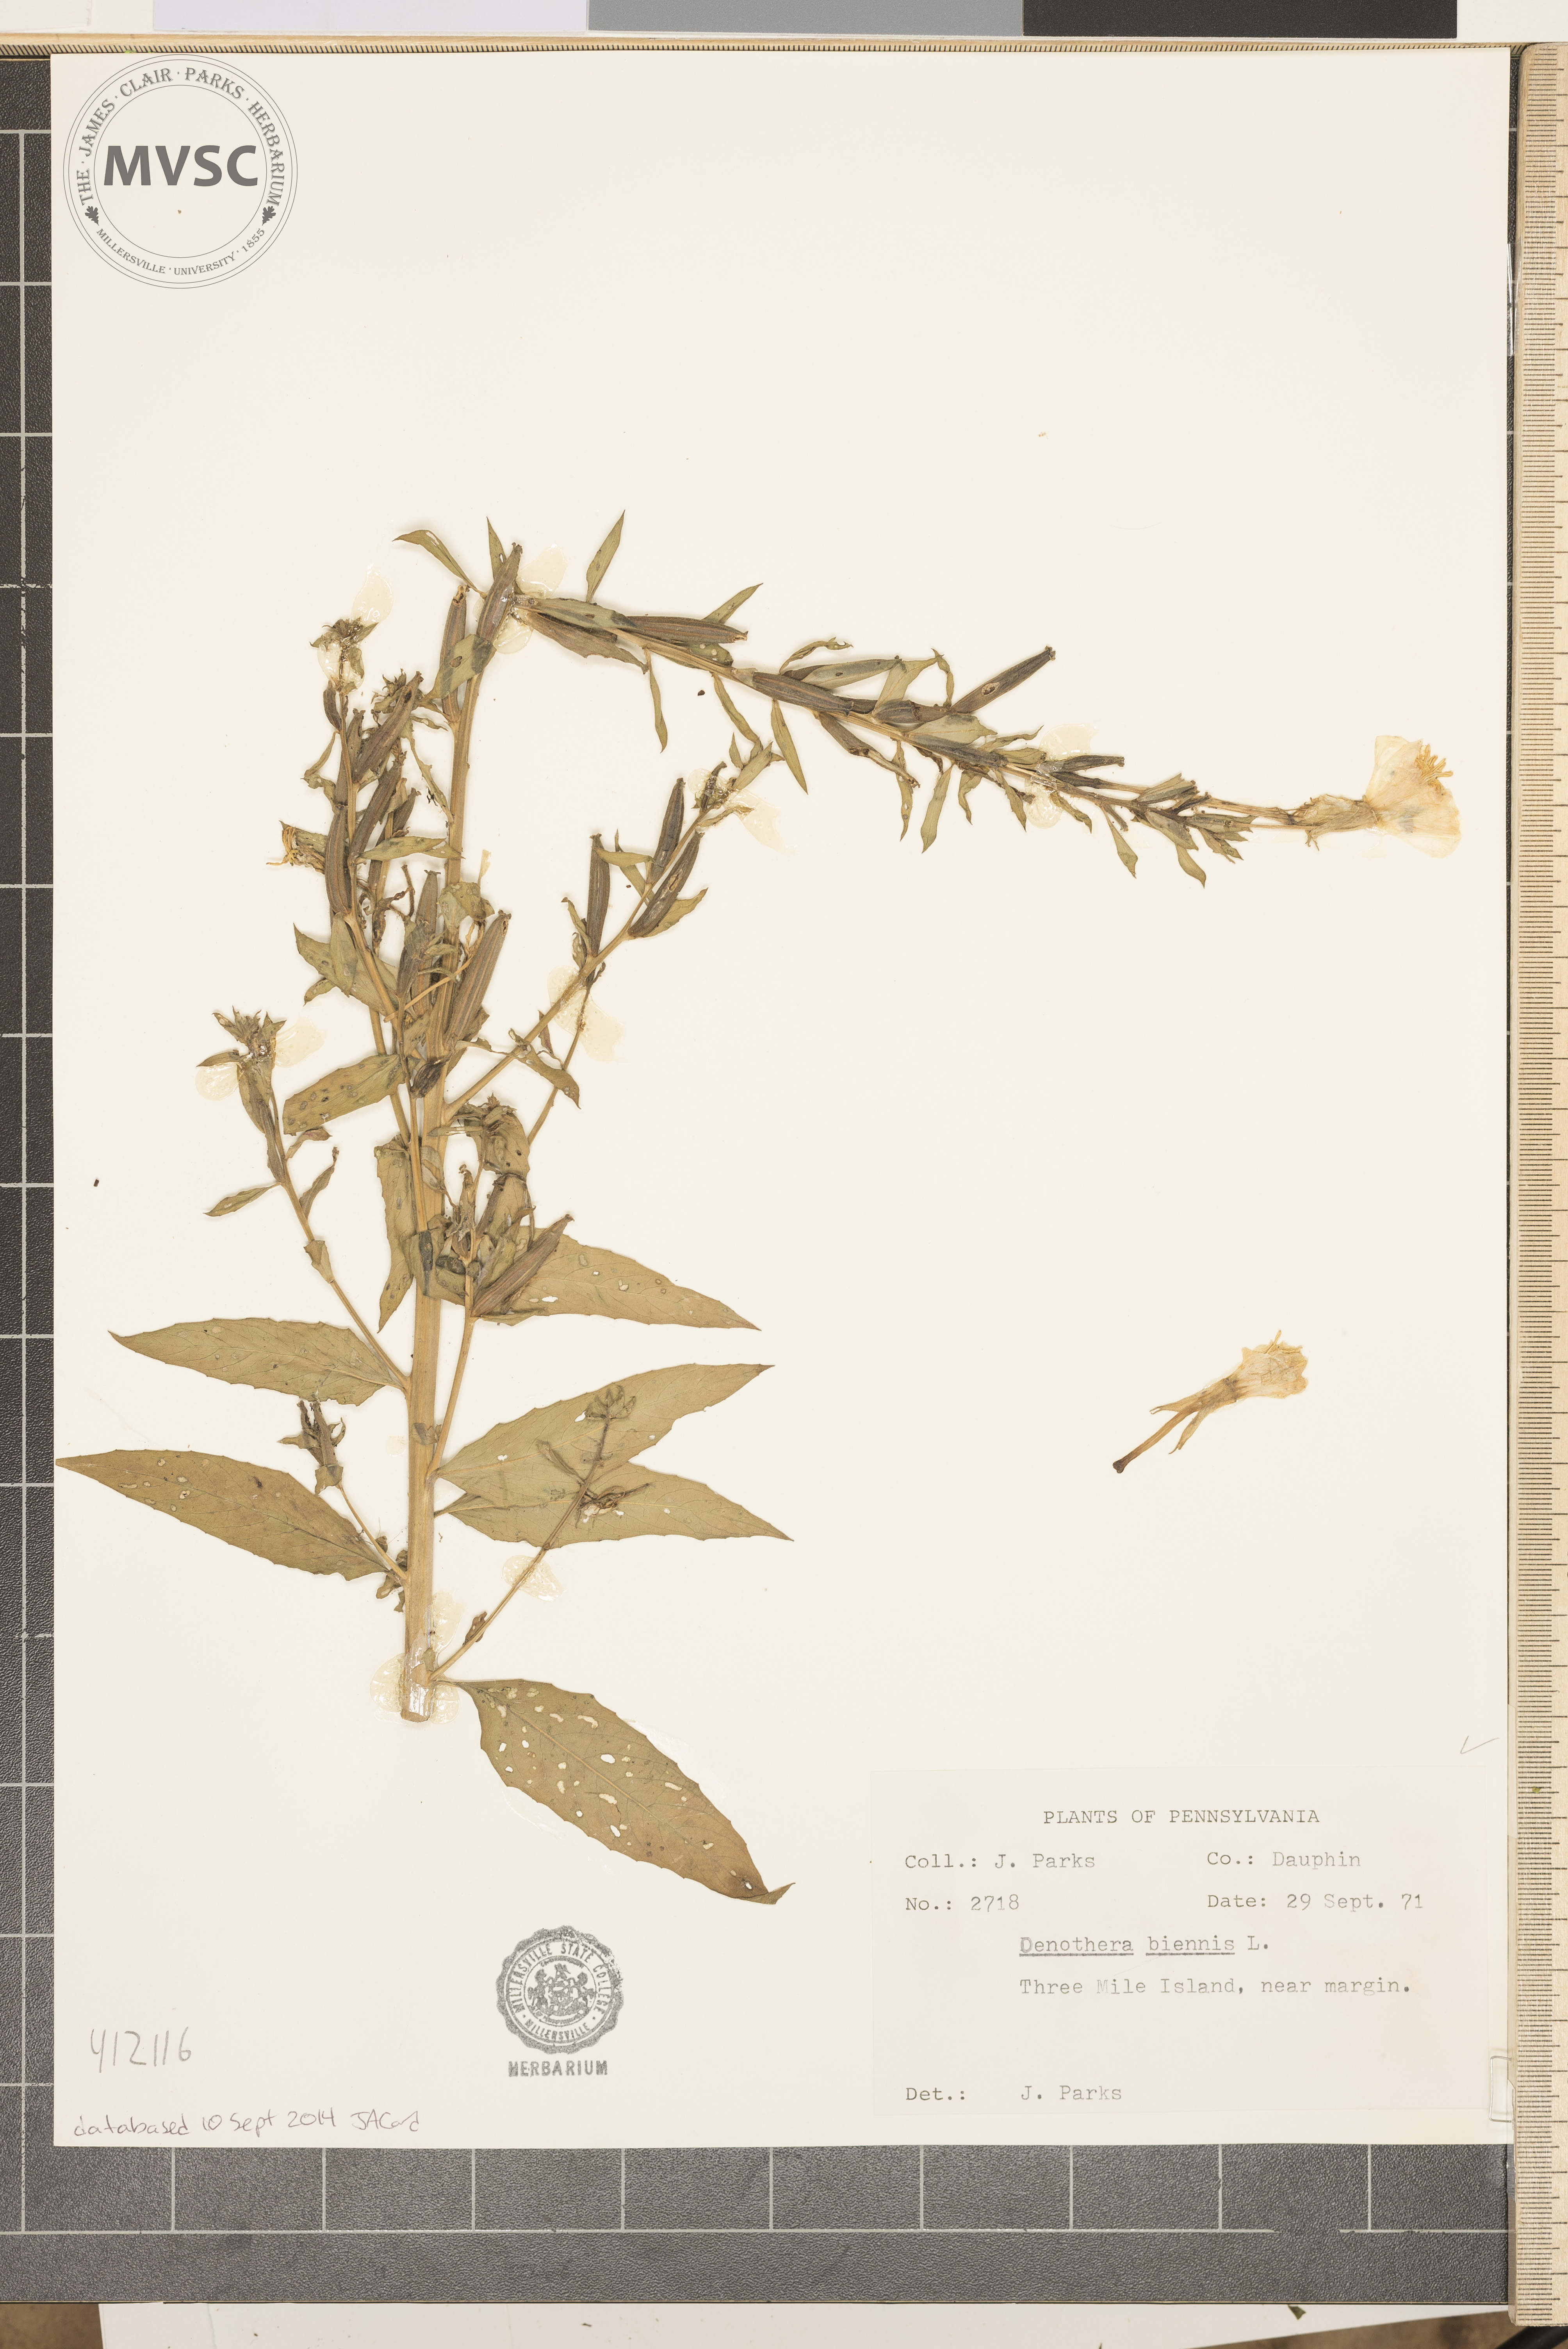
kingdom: Plantae
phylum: Tracheophyta
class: Magnoliopsida
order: Myrtales
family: Onagraceae
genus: Oenothera
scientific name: Oenothera biennis
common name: Common evening-primrose
